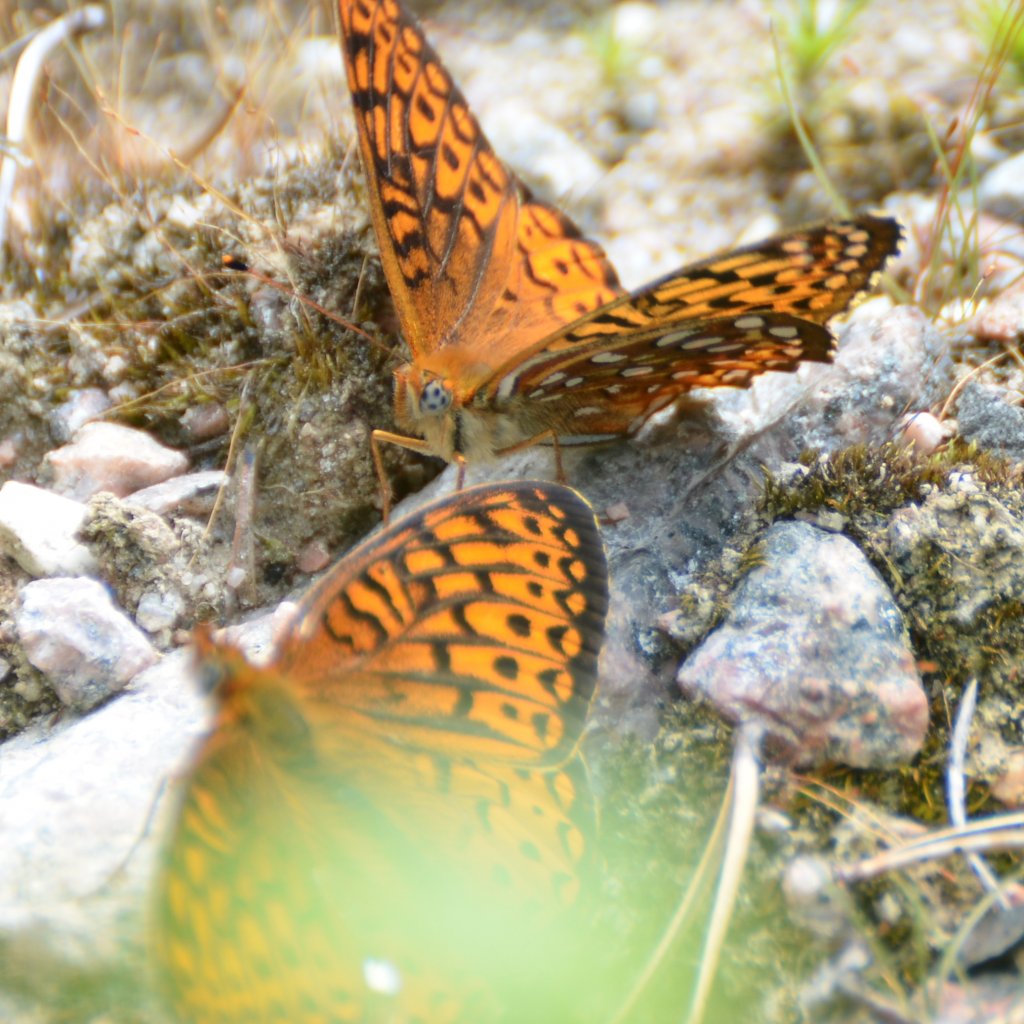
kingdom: Animalia
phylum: Arthropoda
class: Insecta
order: Lepidoptera
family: Nymphalidae
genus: Speyeria
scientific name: Speyeria atlantis
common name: Atlantis Fritillary
